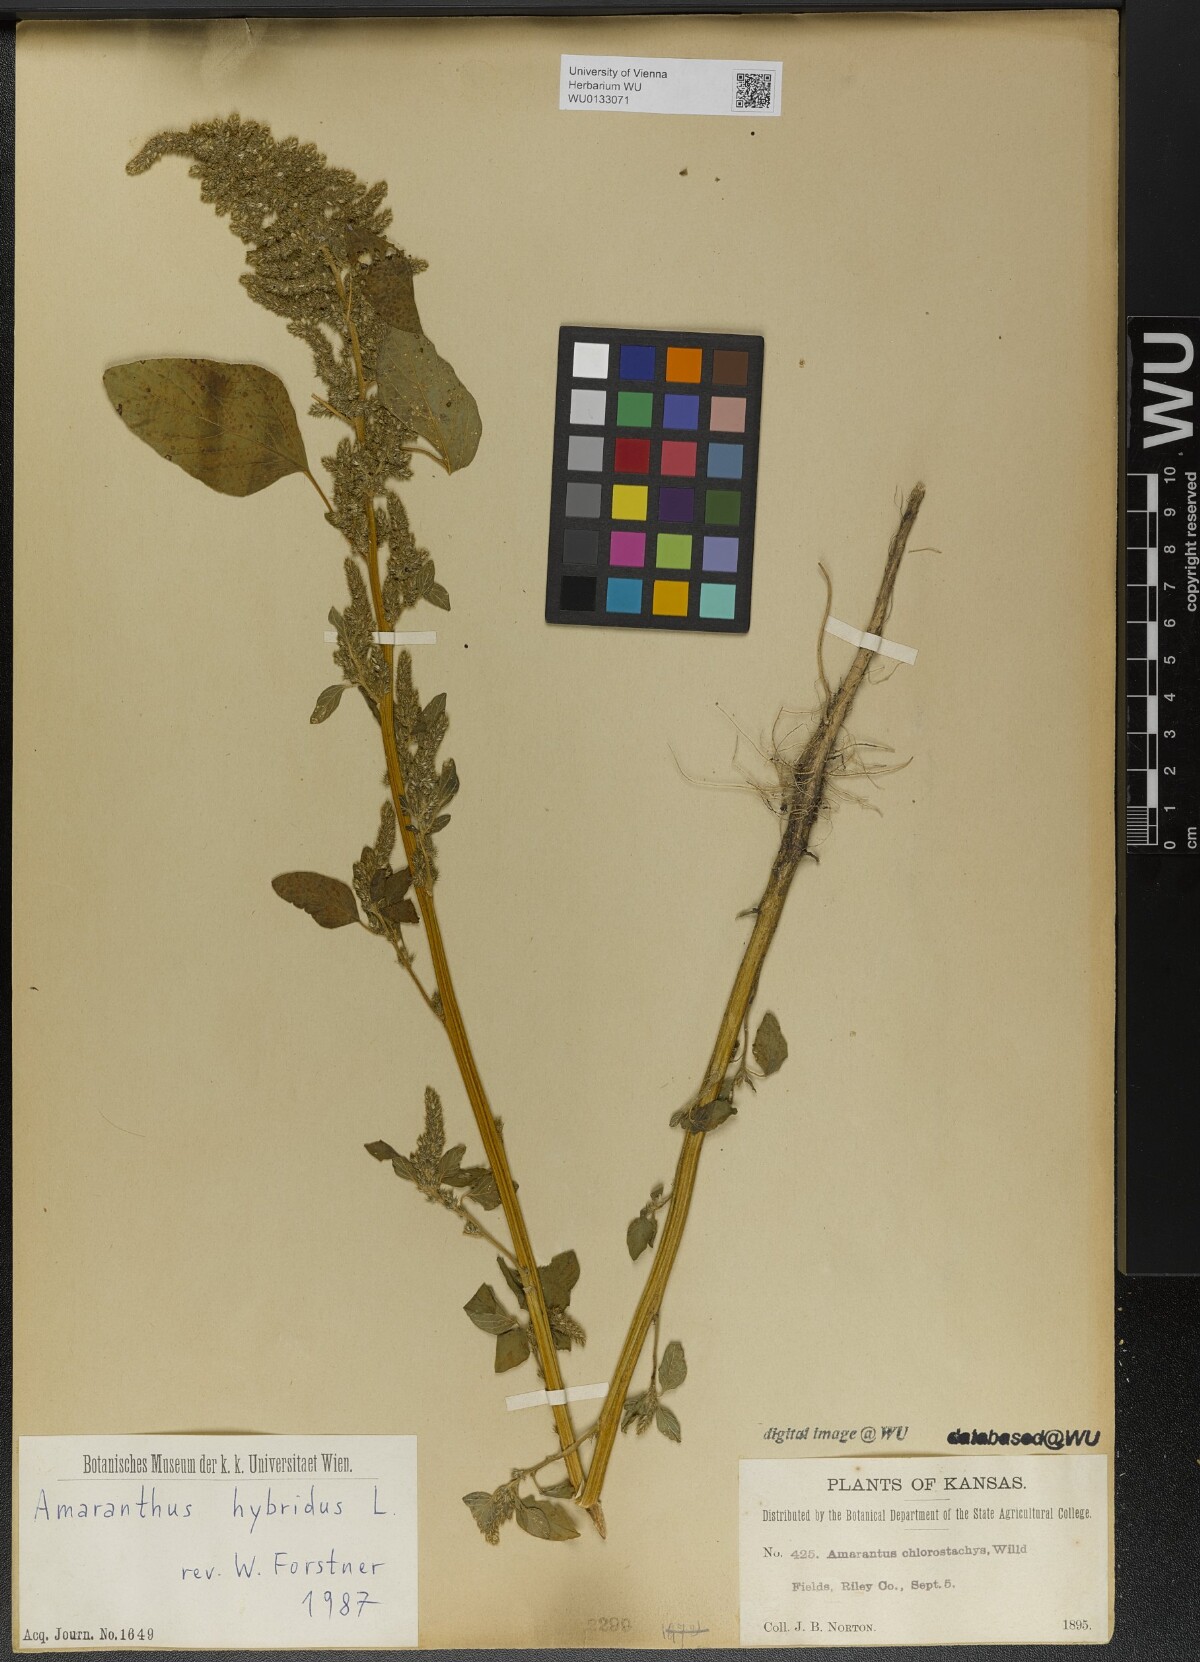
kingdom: Plantae
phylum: Tracheophyta
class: Magnoliopsida
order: Caryophyllales
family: Amaranthaceae
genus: Amaranthus
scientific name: Amaranthus hybridus
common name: Green amaranth
